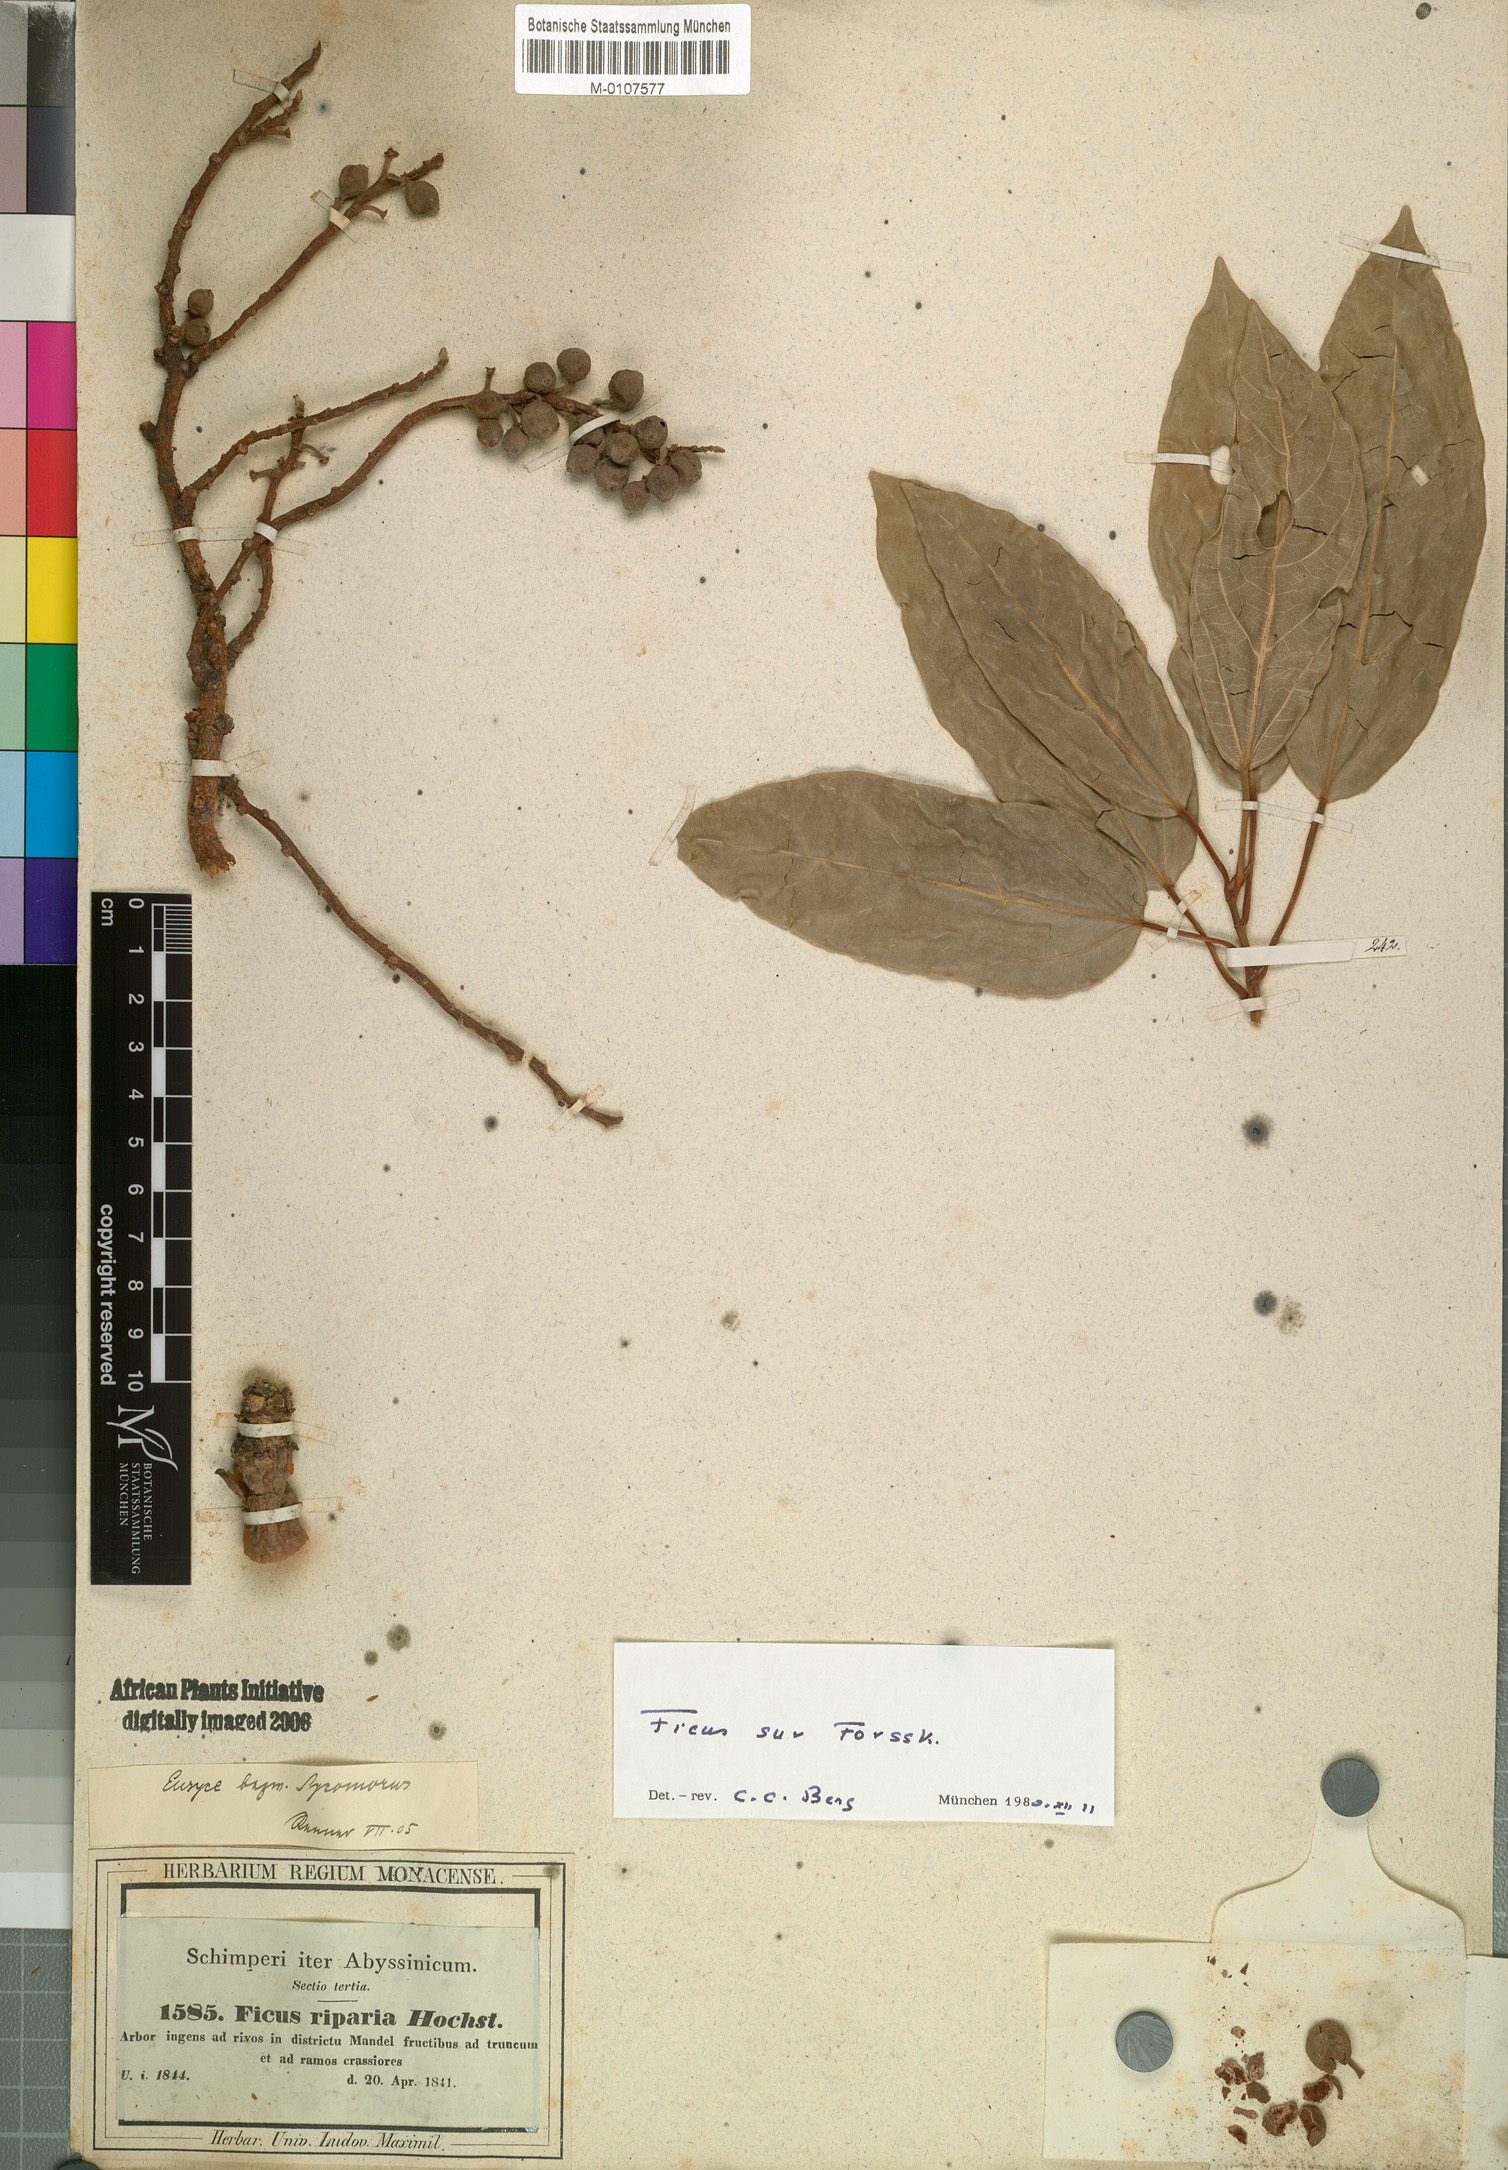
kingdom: Plantae
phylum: Tracheophyta
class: Magnoliopsida
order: Rosales
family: Moraceae
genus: Ficus
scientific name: Ficus sur
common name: Cape fig
